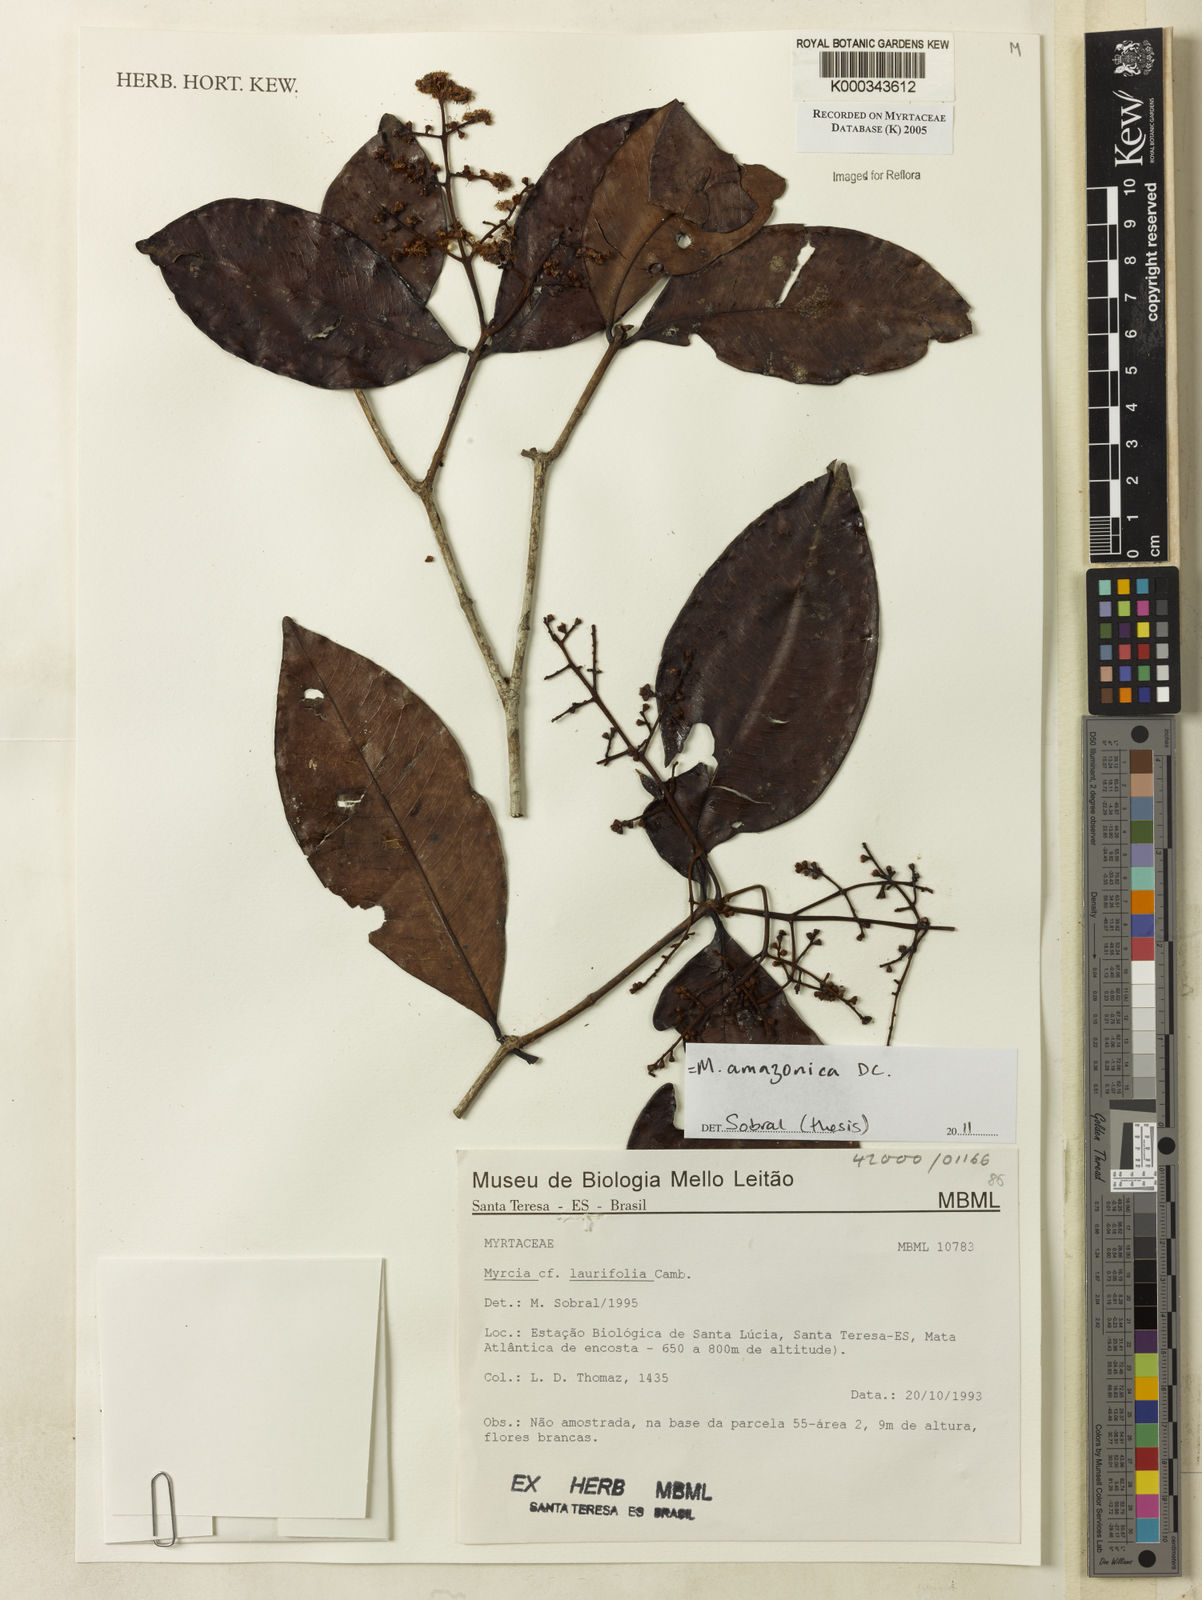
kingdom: Plantae
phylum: Tracheophyta
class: Magnoliopsida
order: Myrtales
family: Myrtaceae
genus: Myrcia
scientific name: Myrcia laurifolia
